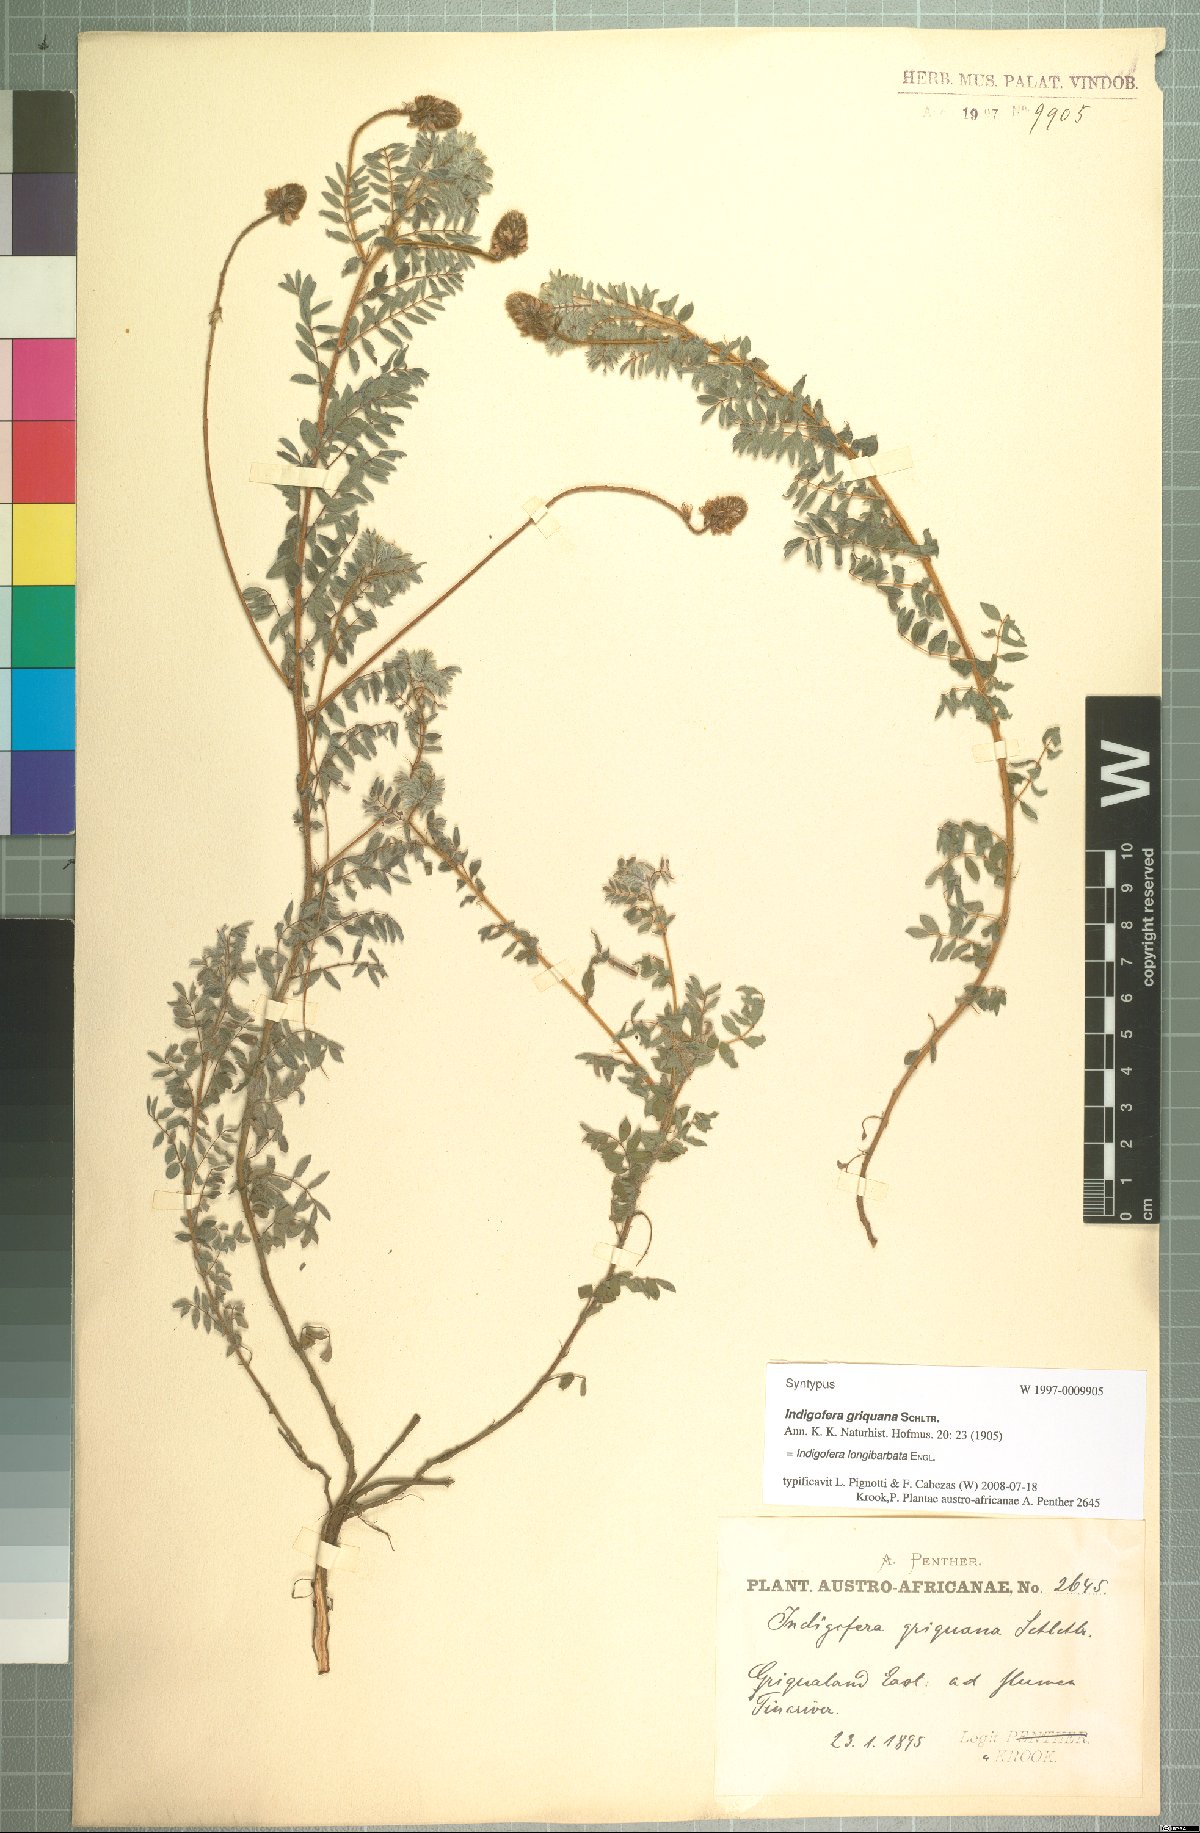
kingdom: Plantae
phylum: Tracheophyta
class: Magnoliopsida
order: Fabales
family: Fabaceae
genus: Indigofera
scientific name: Indigofera longibarbata
